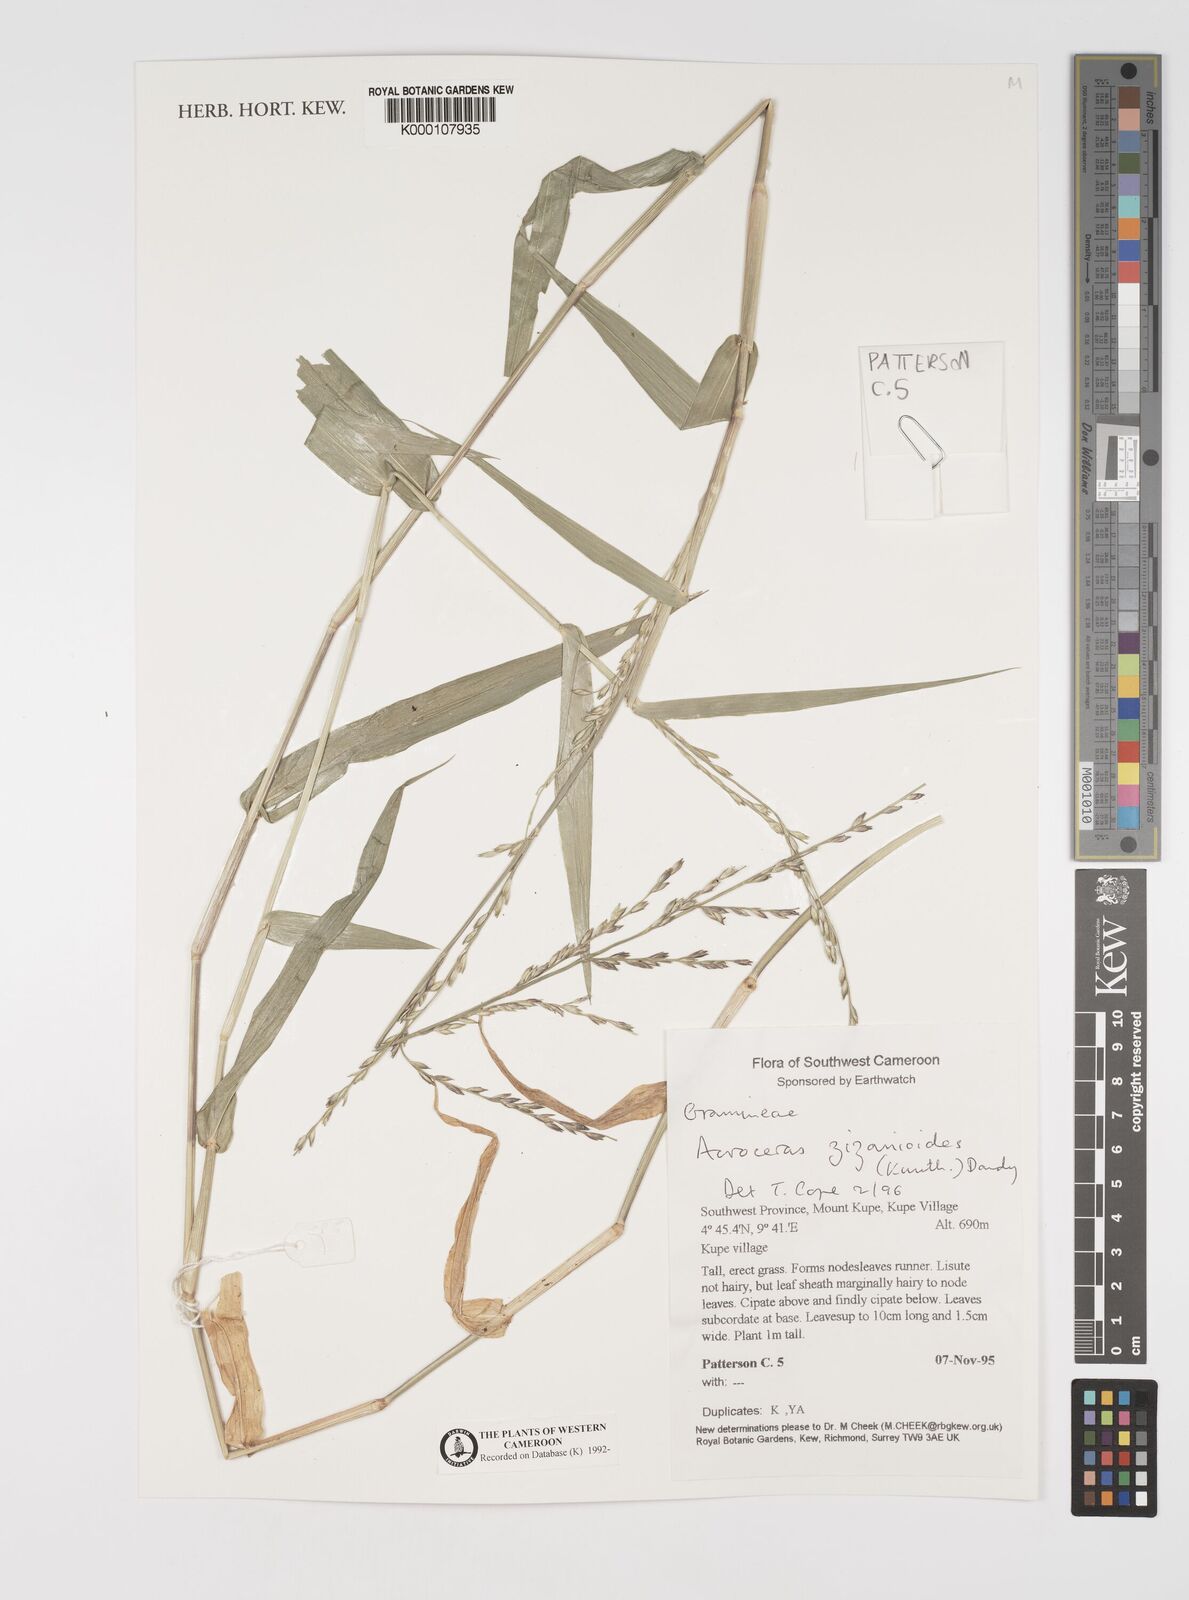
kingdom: Plantae
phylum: Tracheophyta
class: Liliopsida
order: Poales
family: Poaceae
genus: Acroceras
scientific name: Acroceras zizanioides
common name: Oat grass
